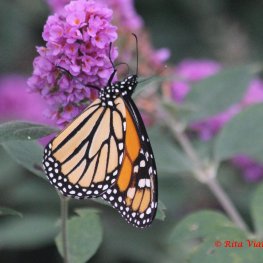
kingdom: Animalia
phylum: Arthropoda
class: Insecta
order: Lepidoptera
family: Nymphalidae
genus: Danaus
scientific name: Danaus plexippus
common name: Monarch
